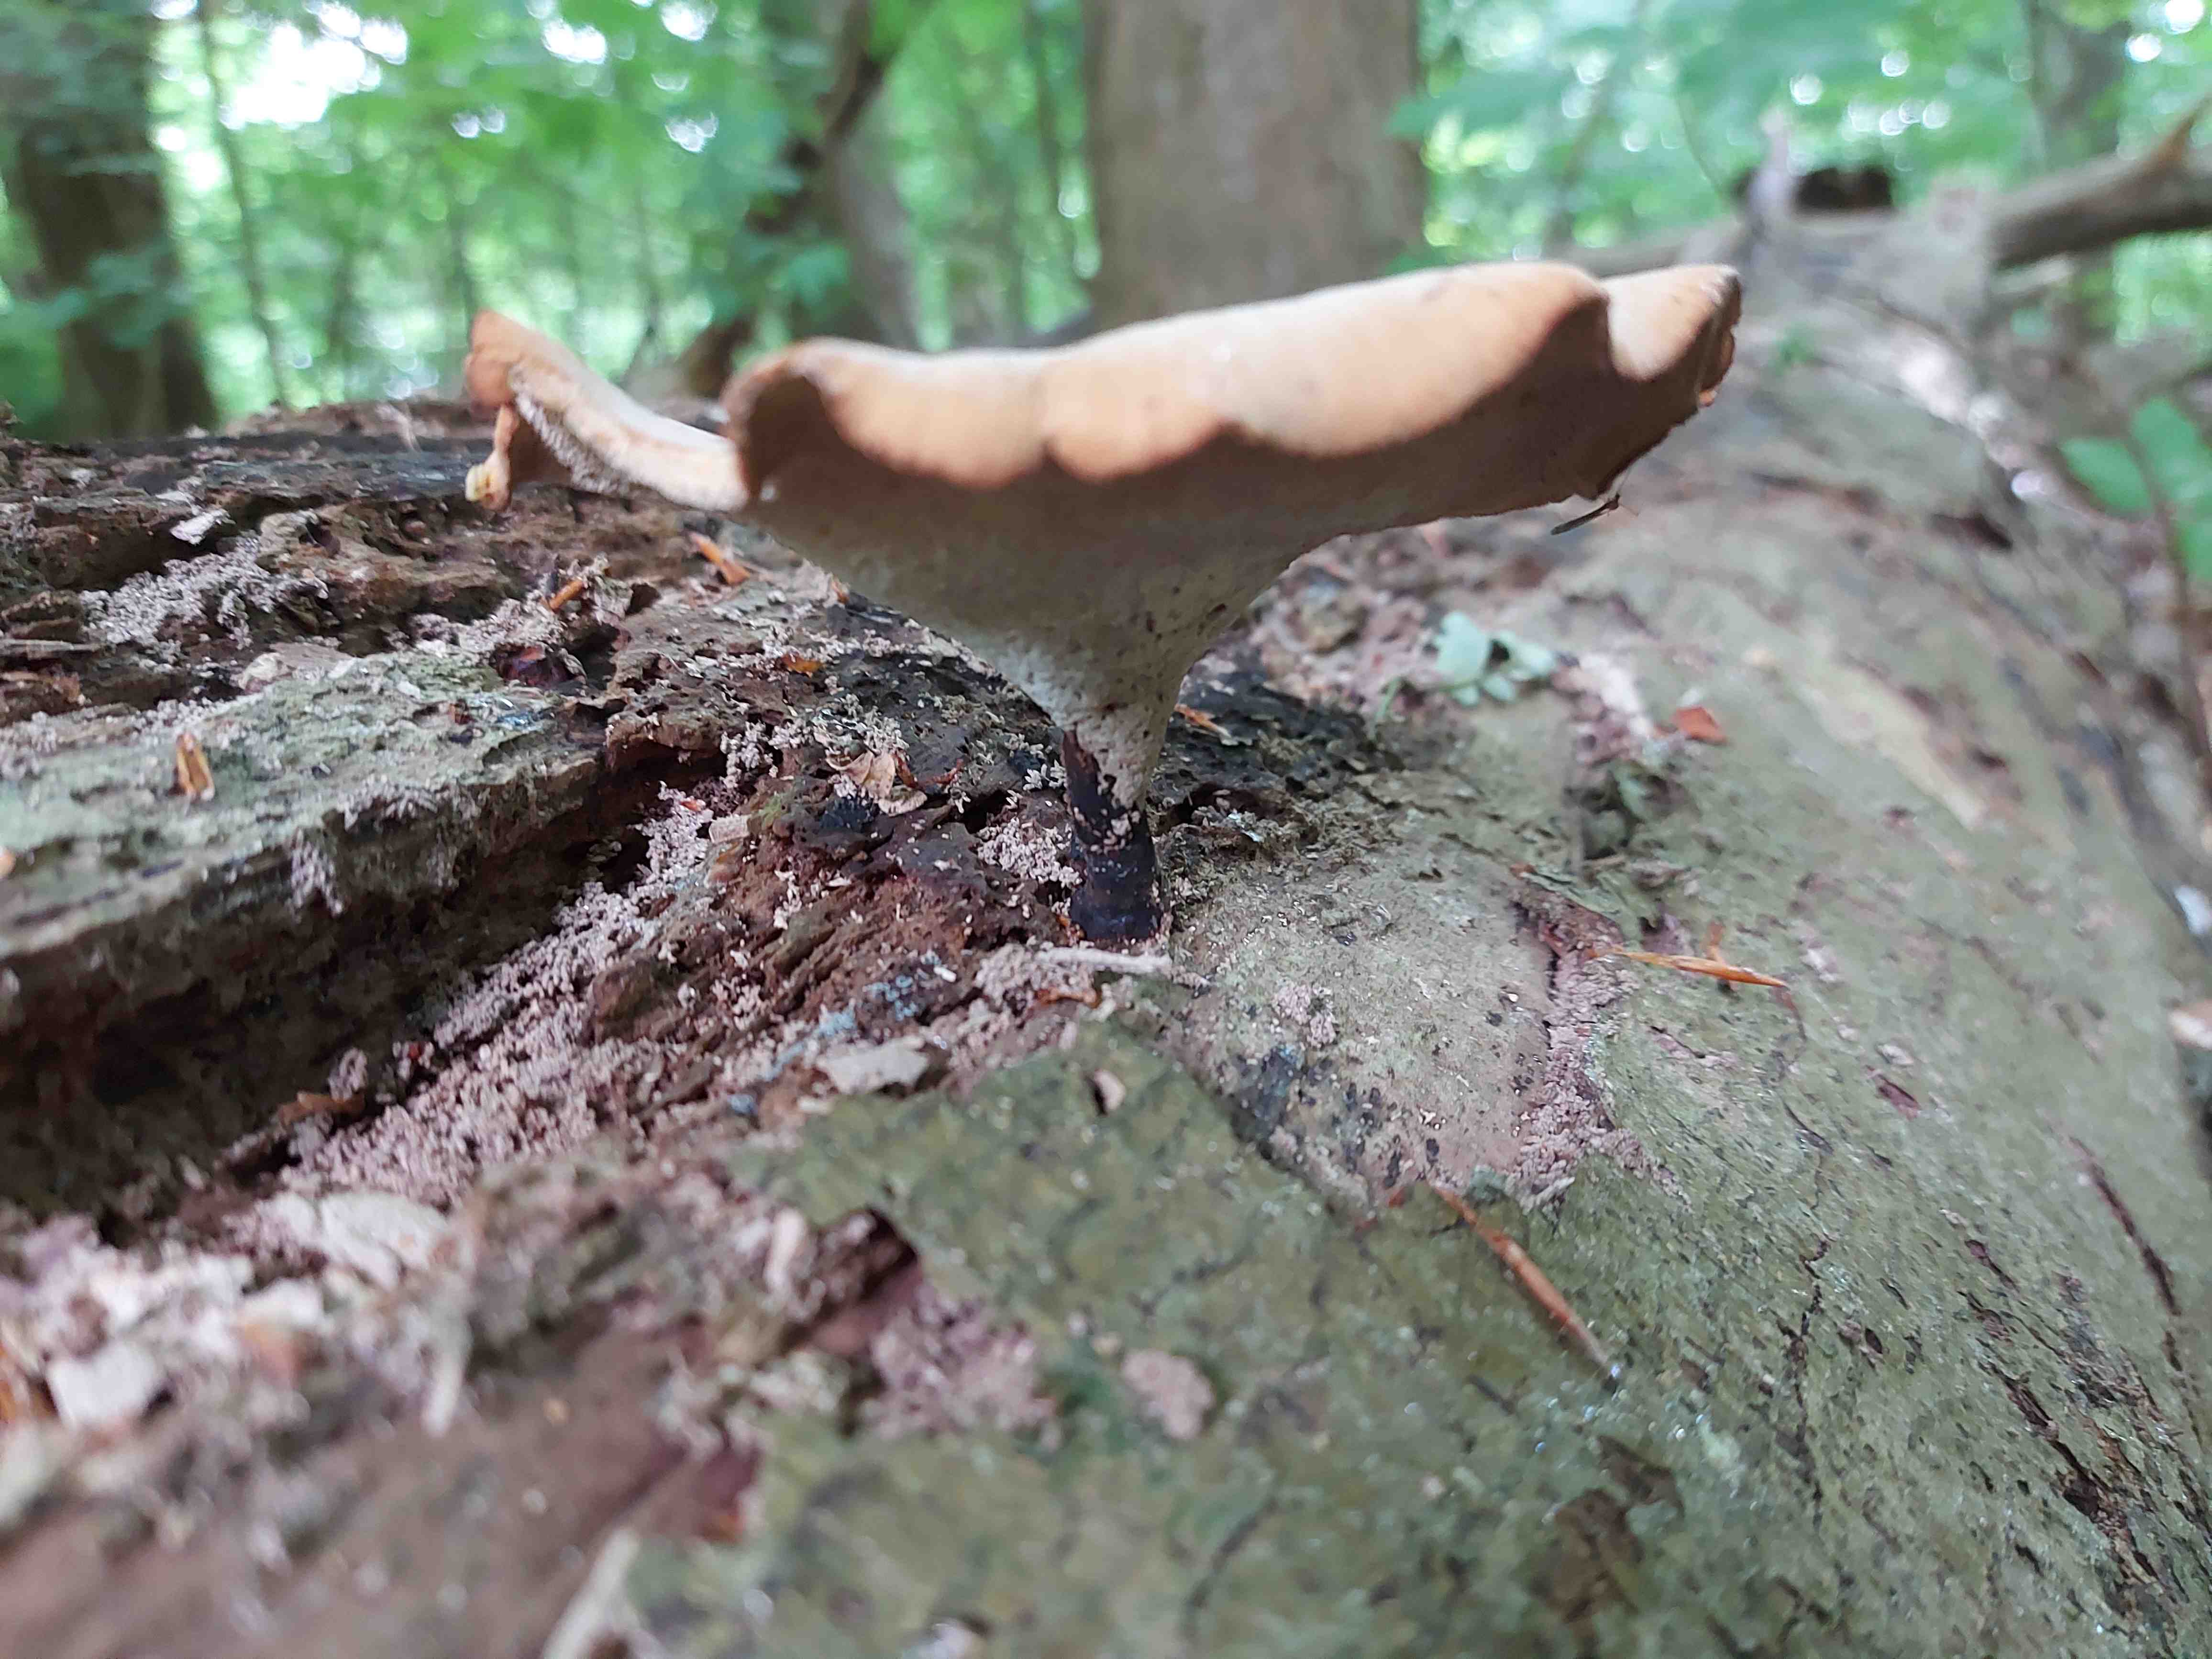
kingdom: Fungi
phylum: Basidiomycota
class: Agaricomycetes
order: Polyporales
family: Polyporaceae
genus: Cerioporus
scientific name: Cerioporus varius
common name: foranderlig stilkporesvamp
